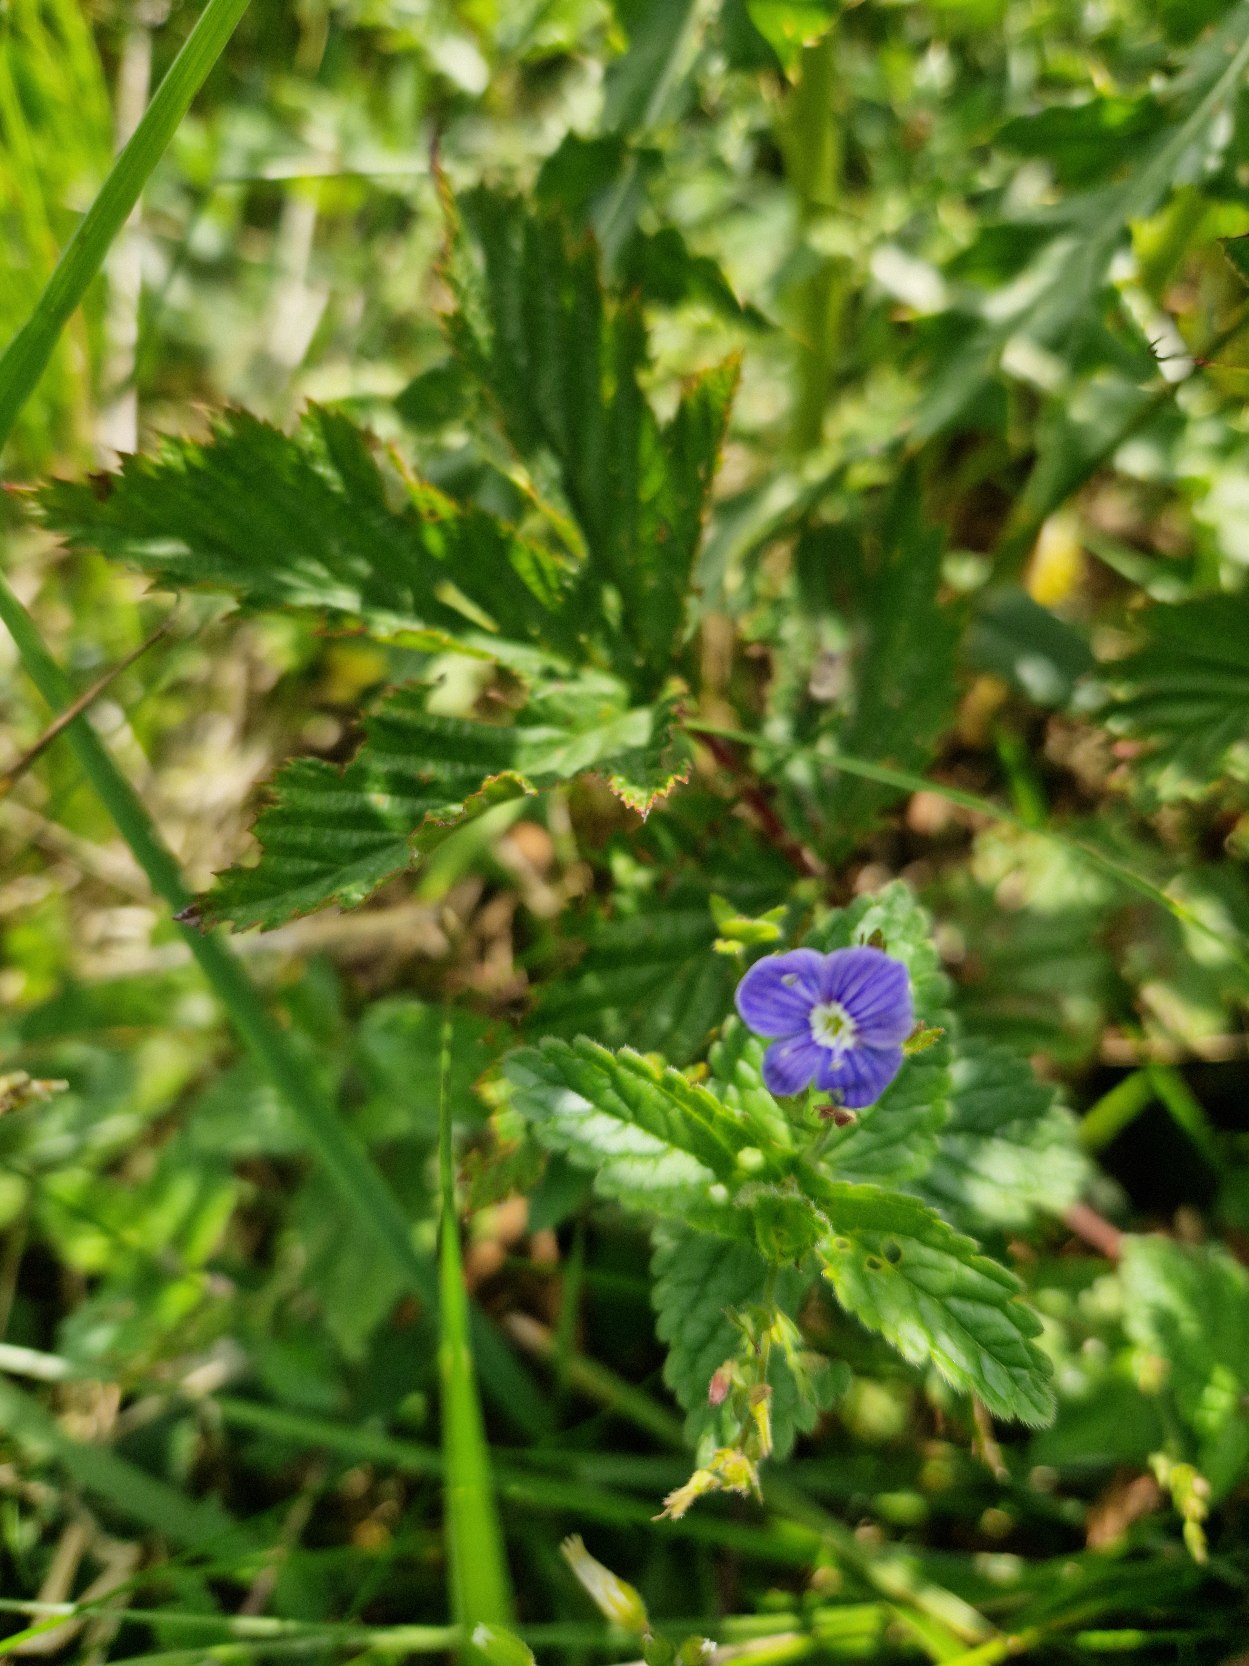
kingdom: Plantae
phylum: Tracheophyta
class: Magnoliopsida
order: Lamiales
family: Plantaginaceae
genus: Veronica
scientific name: Veronica chamaedrys
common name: Tveskægget ærenpris
